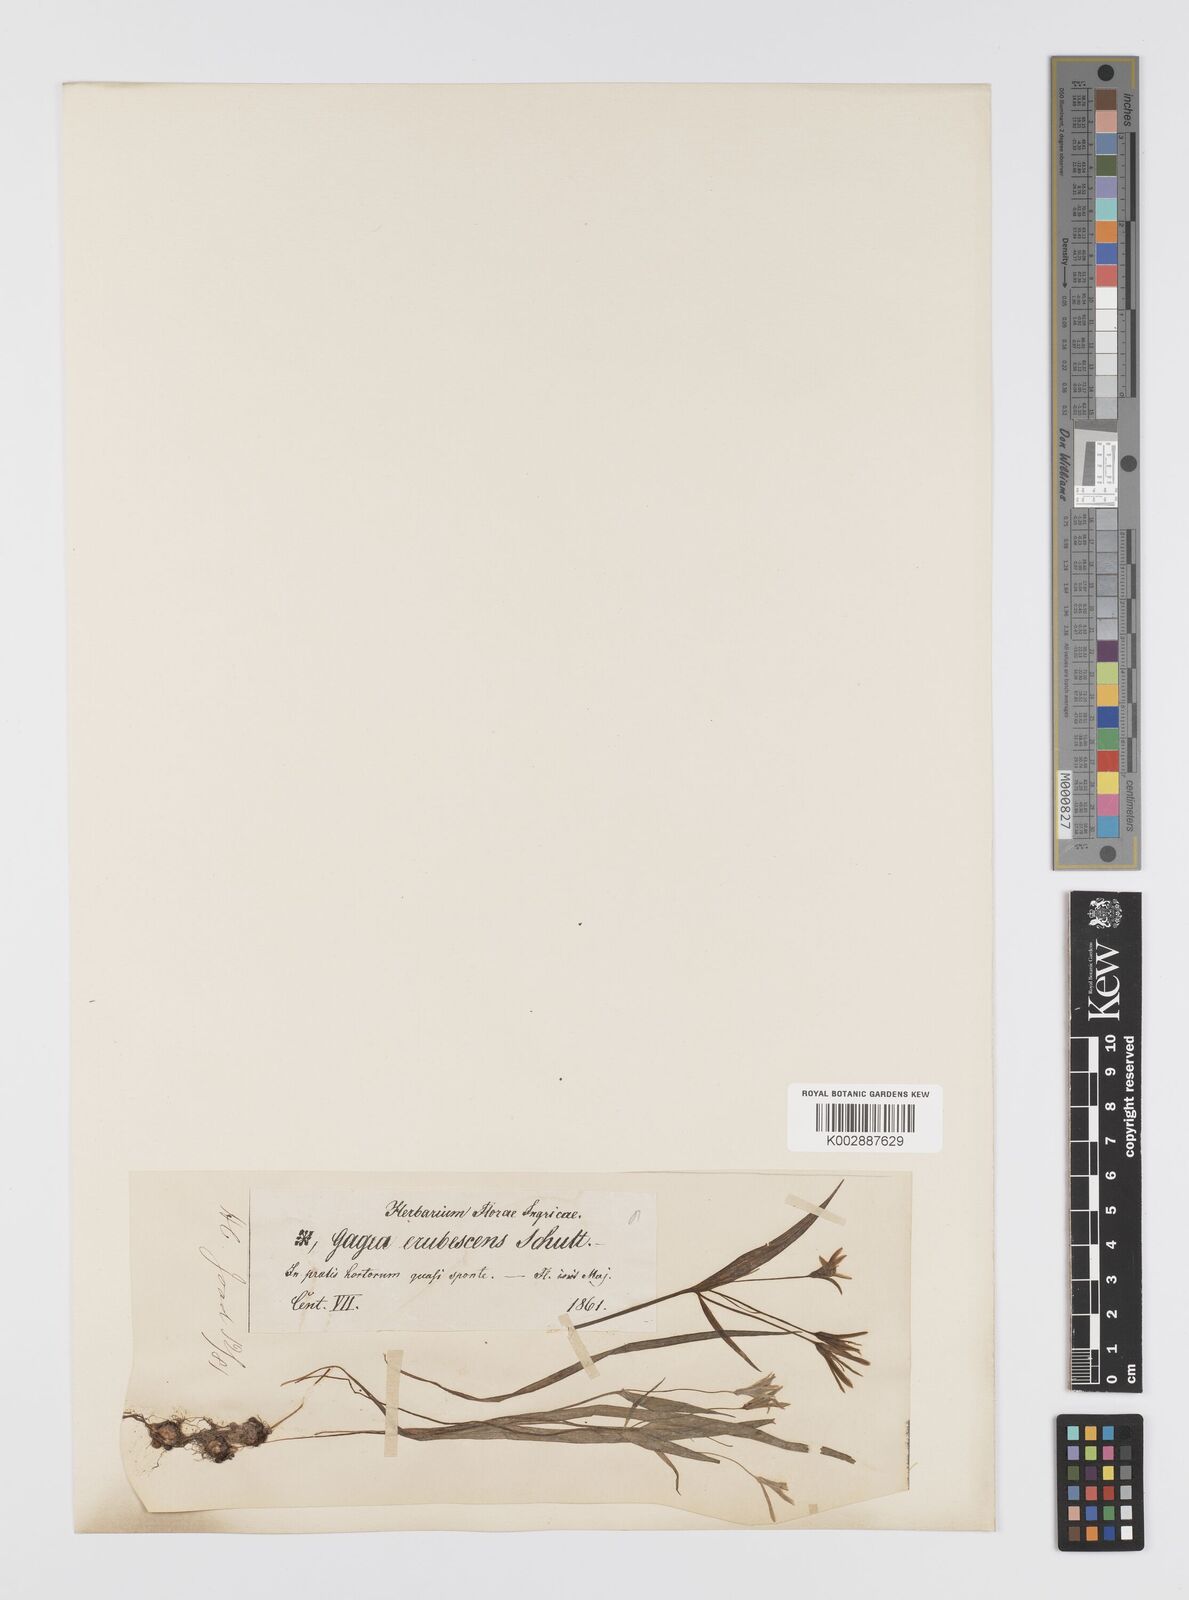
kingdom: Plantae
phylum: Tracheophyta
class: Liliopsida
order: Liliales
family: Liliaceae
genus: Gagea
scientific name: Gagea fragifera
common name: Lily
